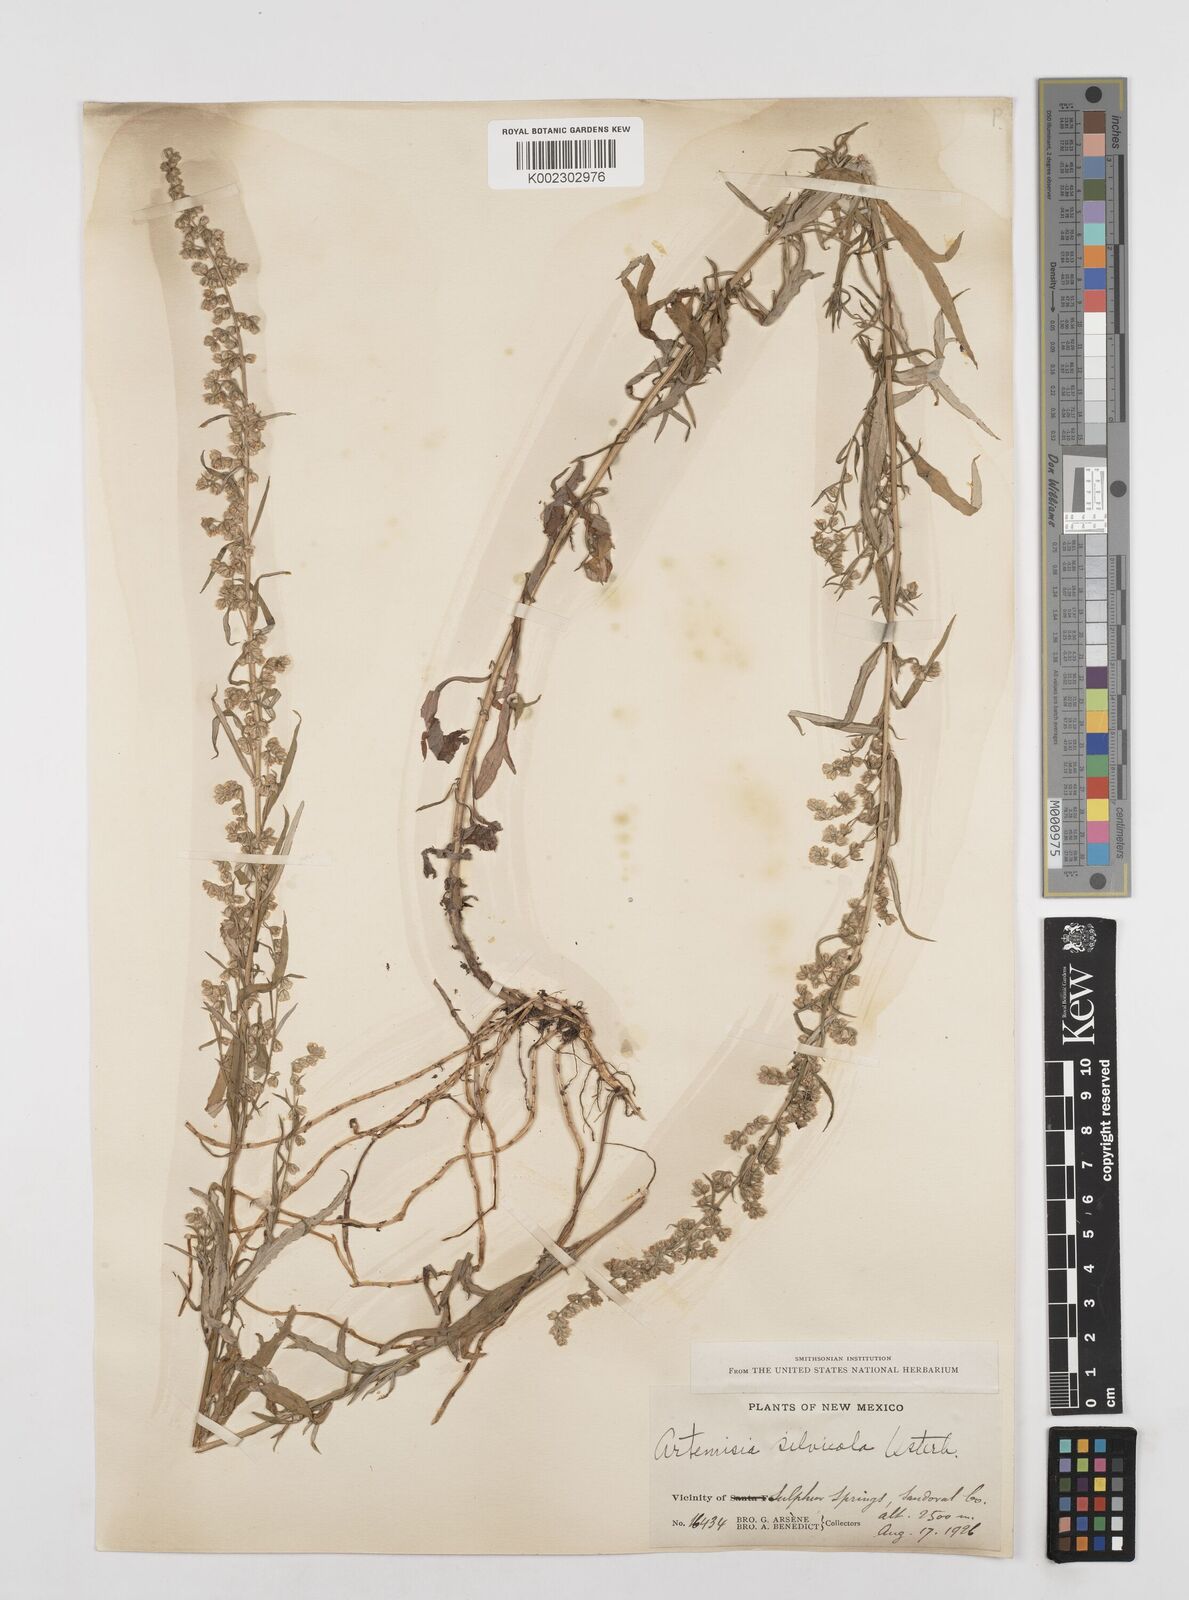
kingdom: Plantae
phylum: Tracheophyta
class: Magnoliopsida
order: Asterales
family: Asteraceae
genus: Artemisia
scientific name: Artemisia ludoviciana
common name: Western mugwort
